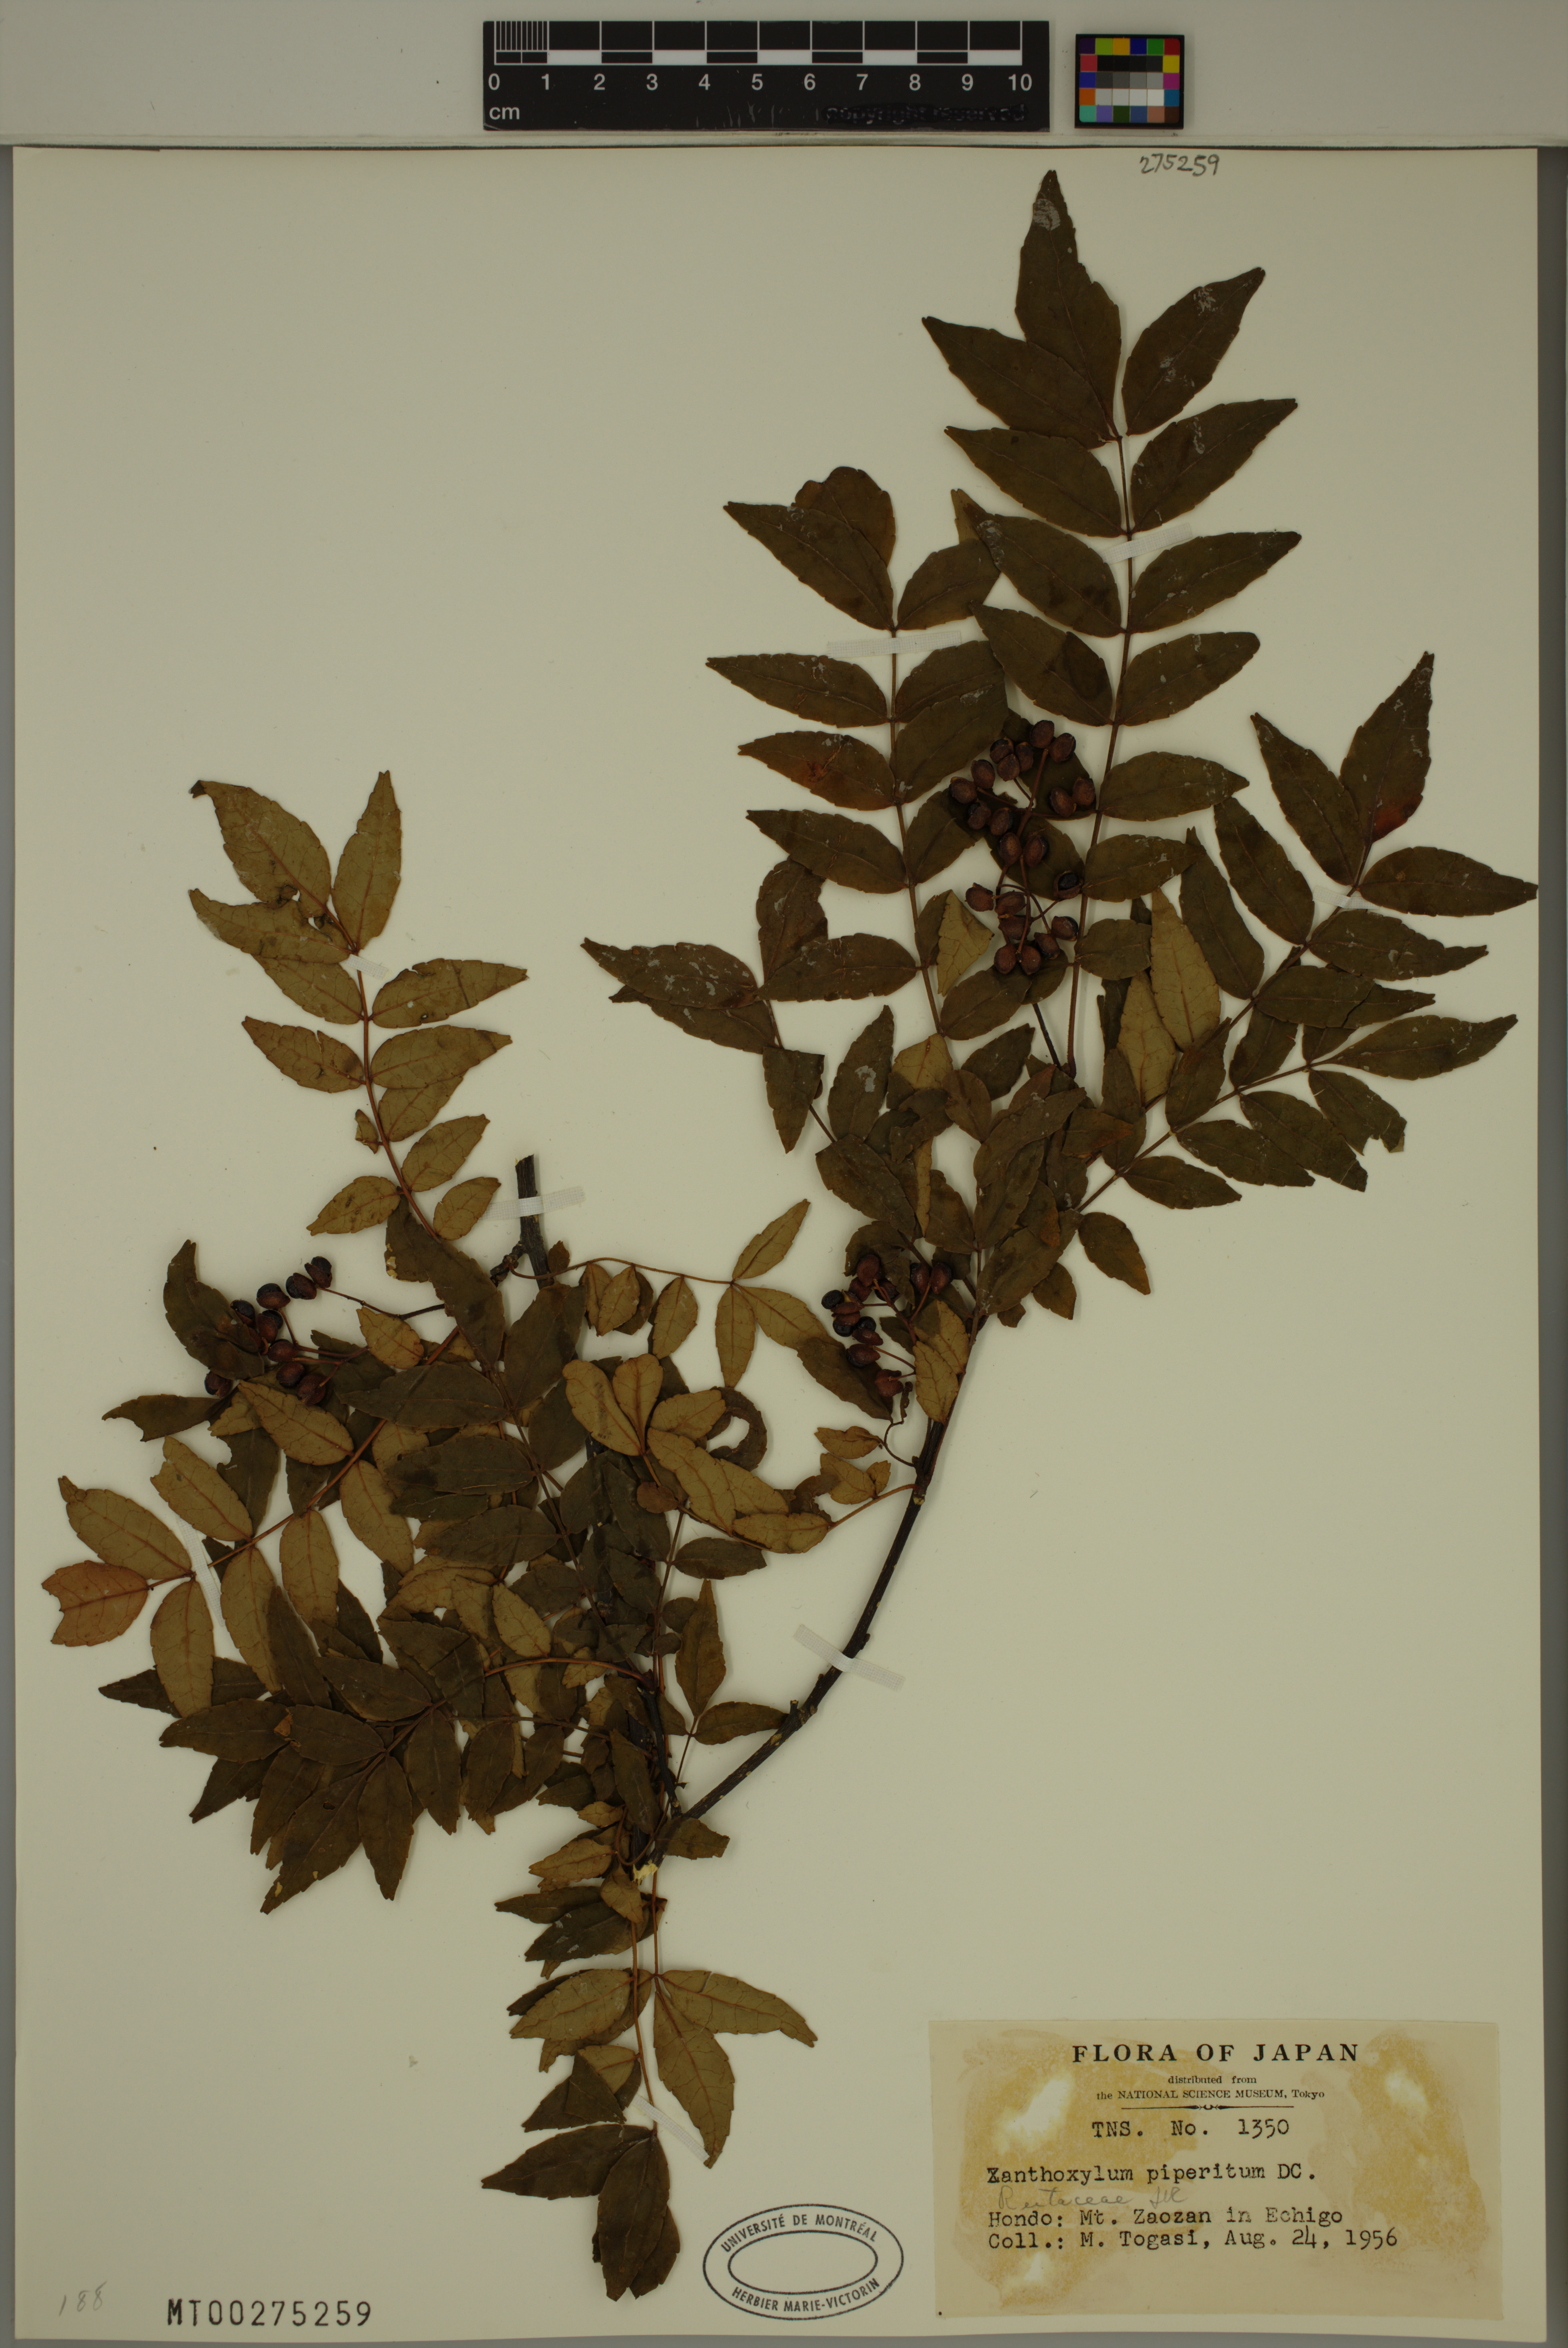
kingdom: Plantae
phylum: Tracheophyta
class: Magnoliopsida
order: Sapindales
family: Rutaceae
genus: Zanthoxylum
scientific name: Zanthoxylum piperitum
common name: Japanese-pepper
